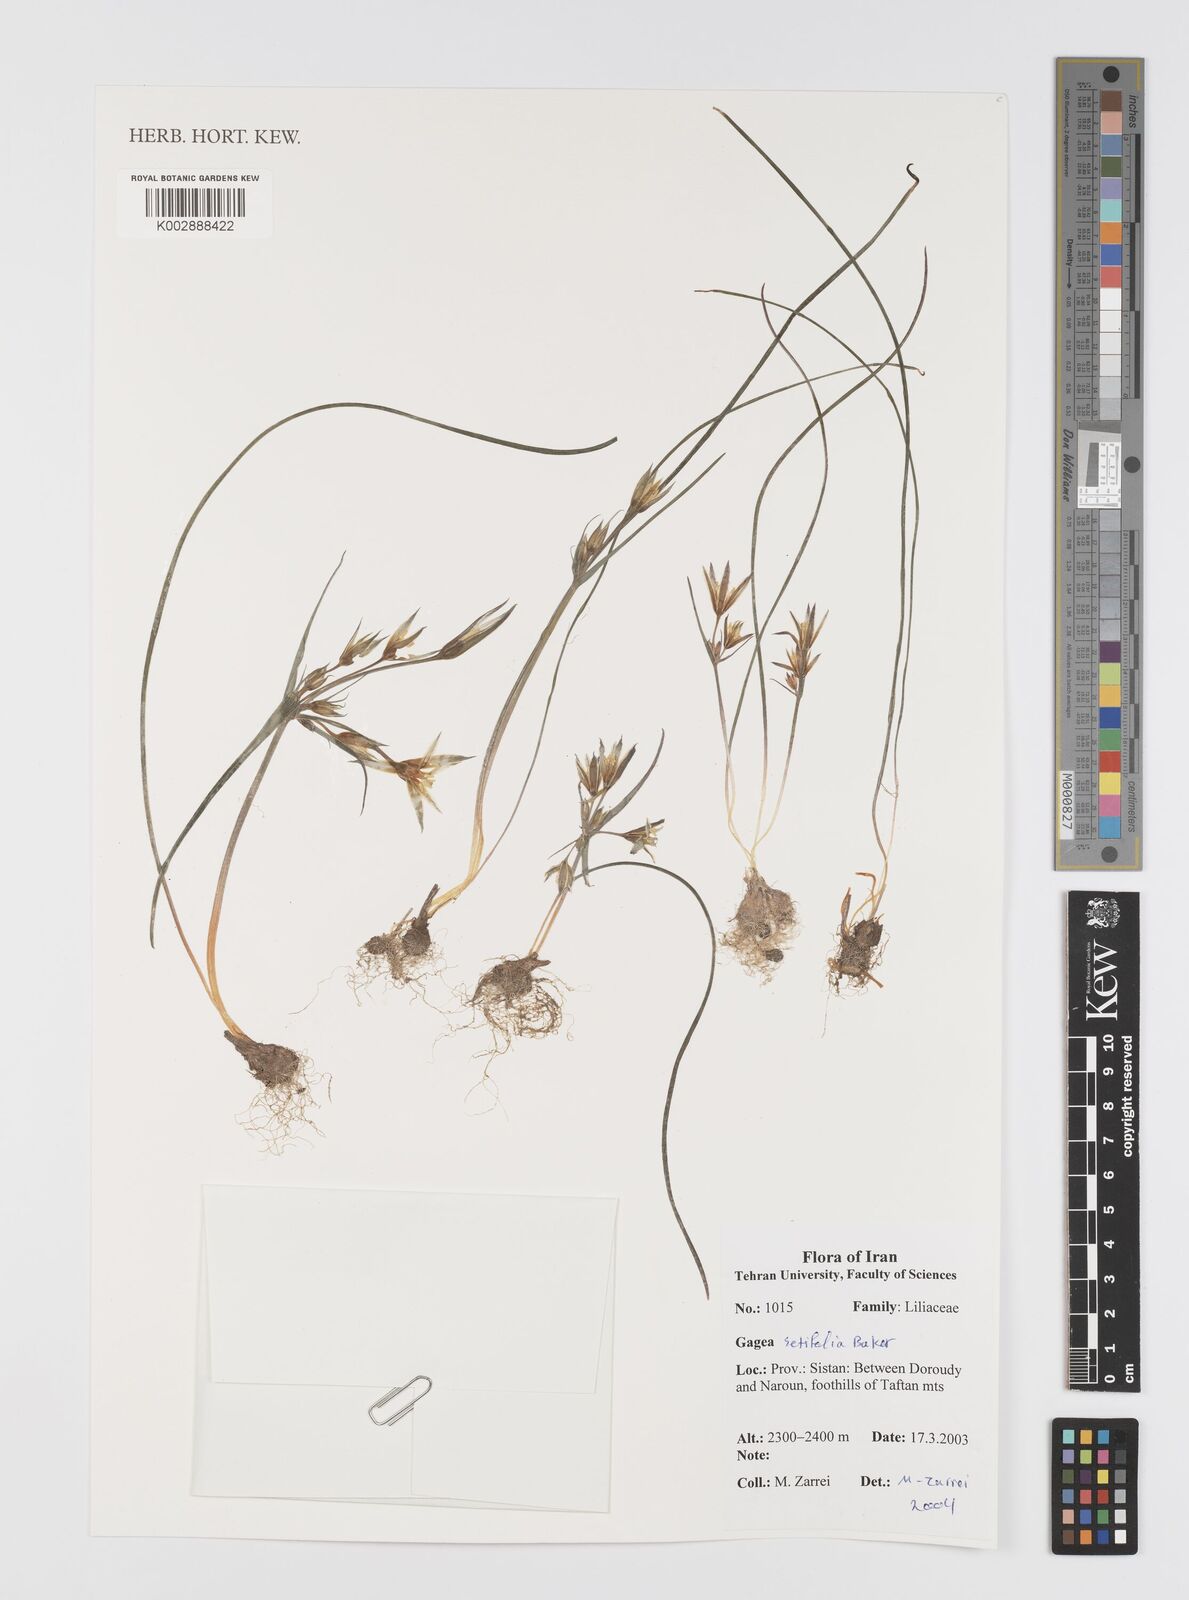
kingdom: Plantae
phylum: Tracheophyta
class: Liliopsida
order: Liliales
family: Liliaceae
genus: Gagea
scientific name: Gagea setifolia
